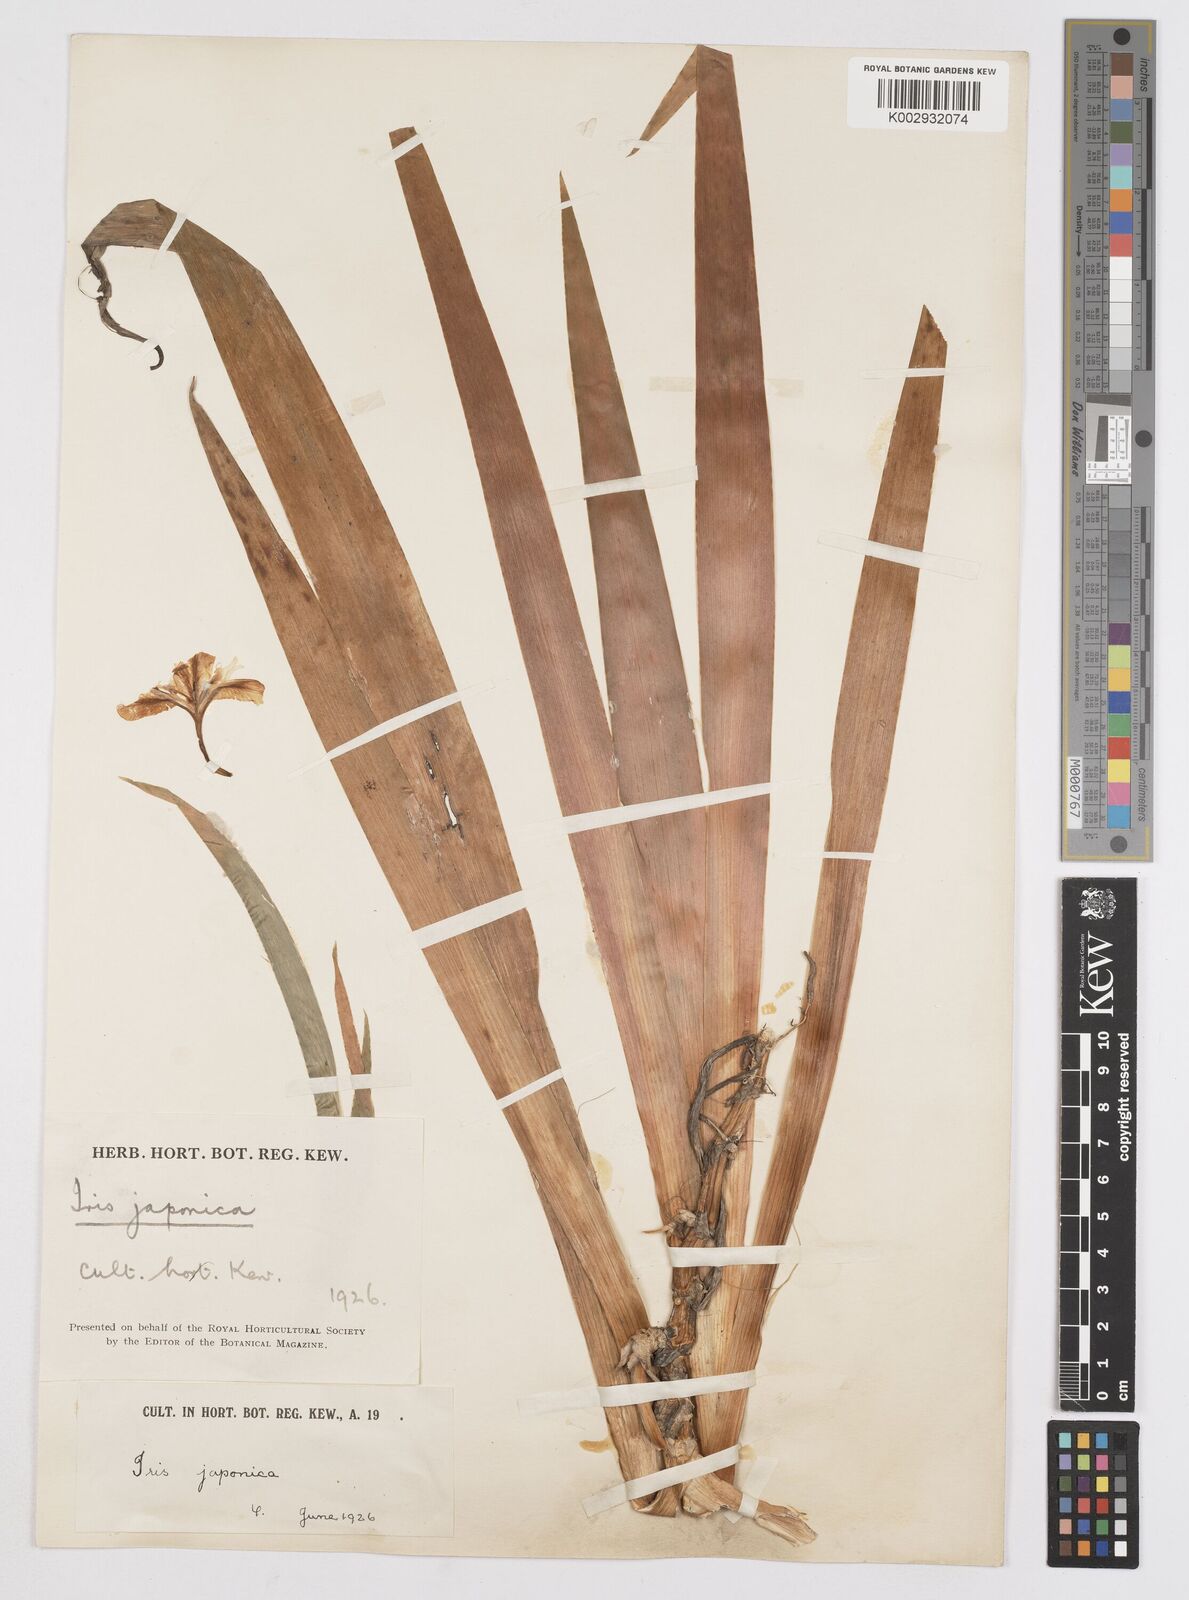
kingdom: Plantae
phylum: Tracheophyta
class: Liliopsida
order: Asparagales
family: Iridaceae
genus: Iris
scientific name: Iris japonica
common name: Butterfly-flower
